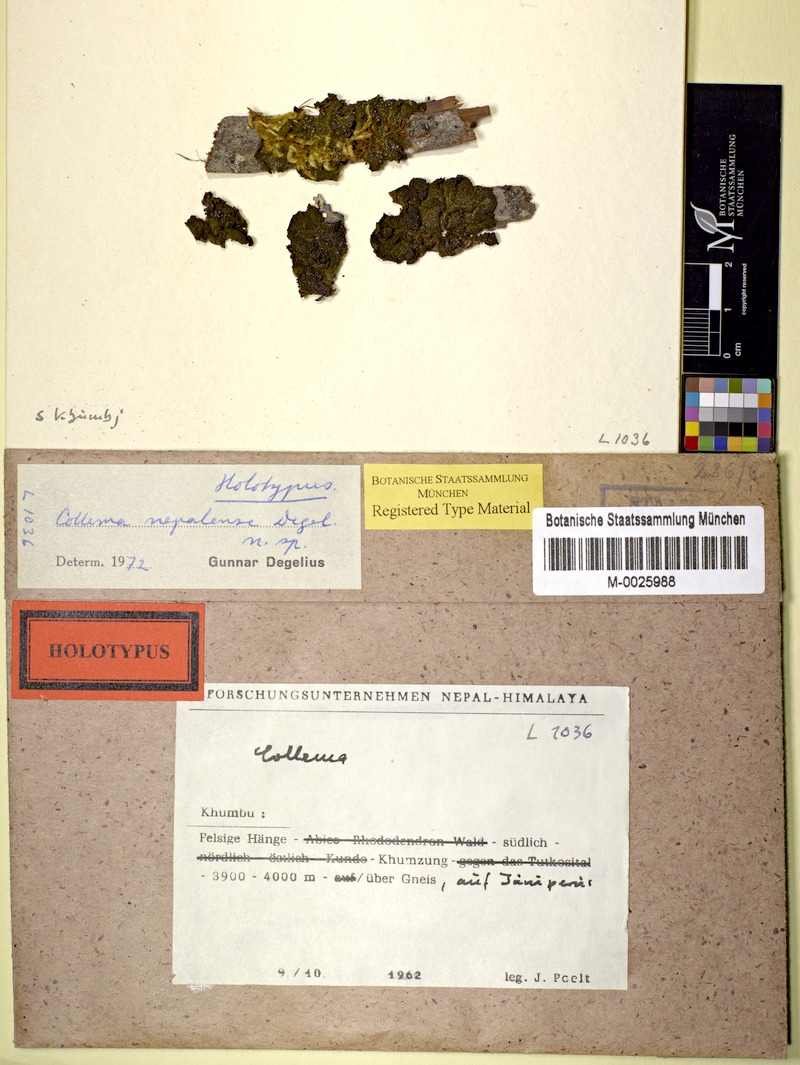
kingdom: Fungi
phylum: Ascomycota
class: Lecanoromycetes
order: Peltigerales
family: Collemataceae
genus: Collema
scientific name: Collema
